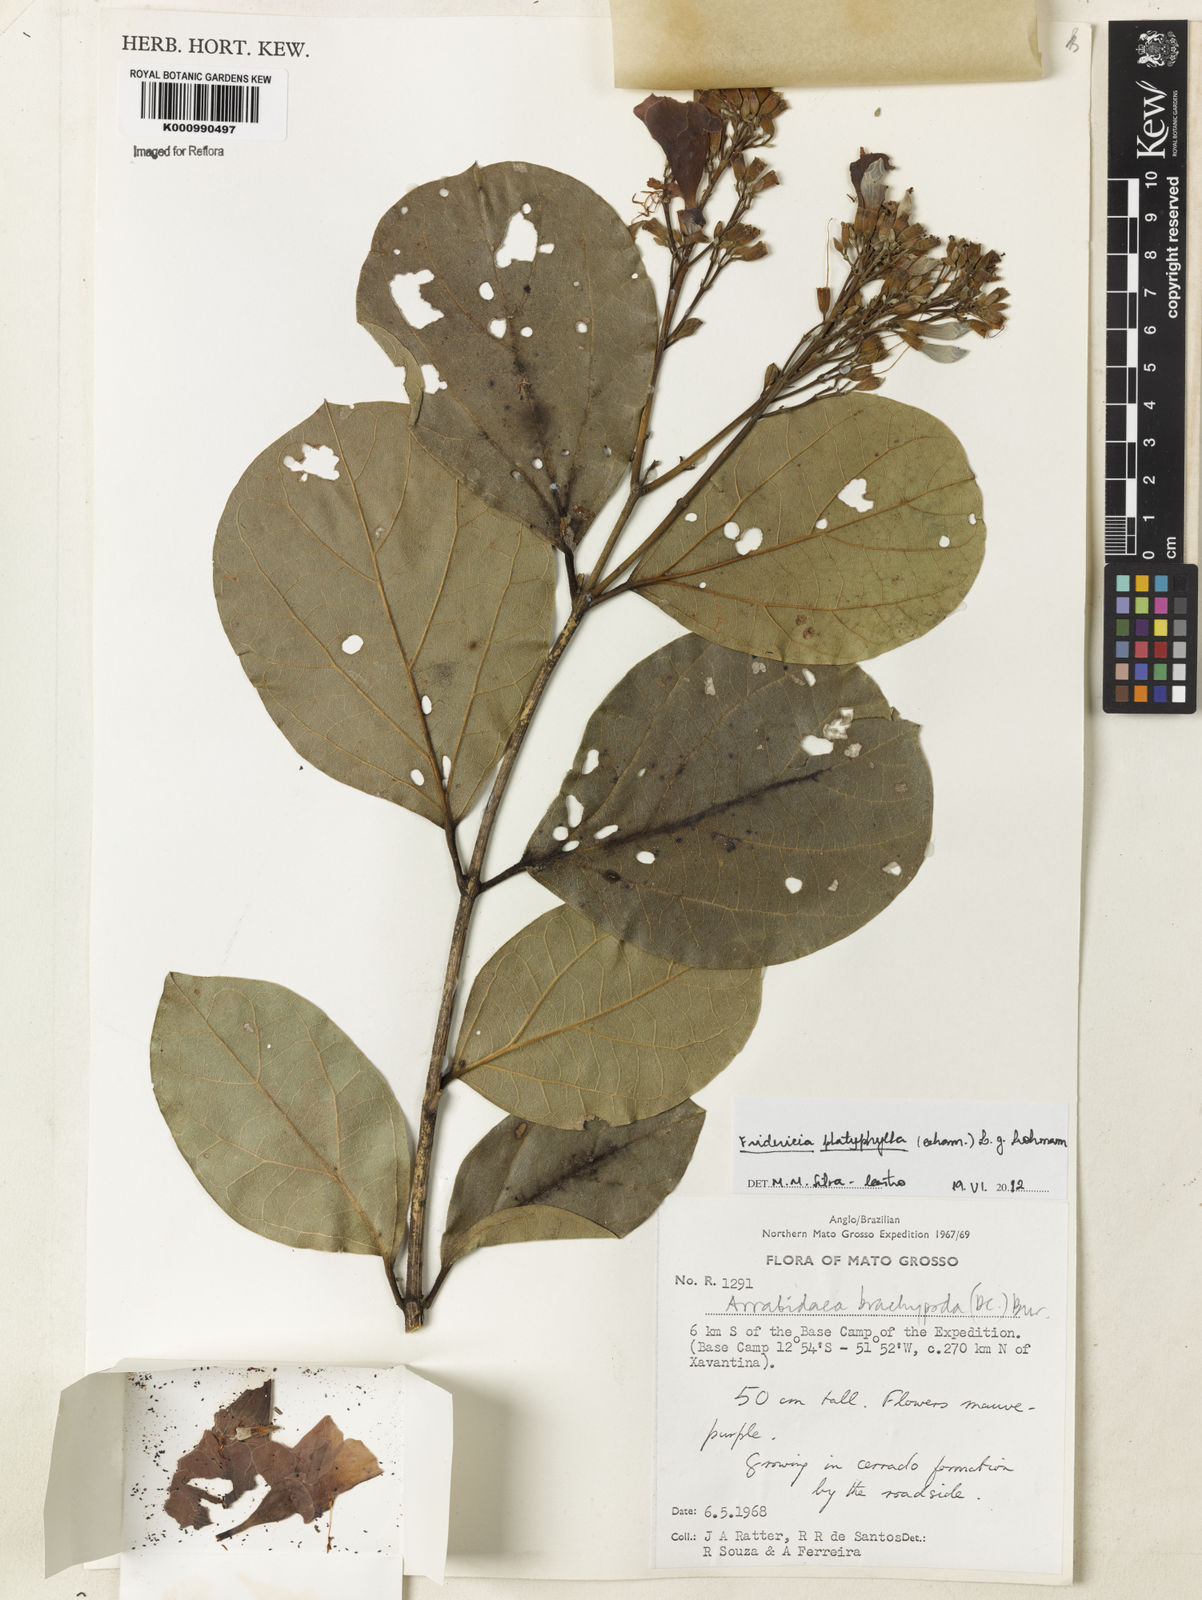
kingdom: Plantae
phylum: Tracheophyta
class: Magnoliopsida
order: Lamiales
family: Bignoniaceae
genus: Fridericia
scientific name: Fridericia platyphylla
